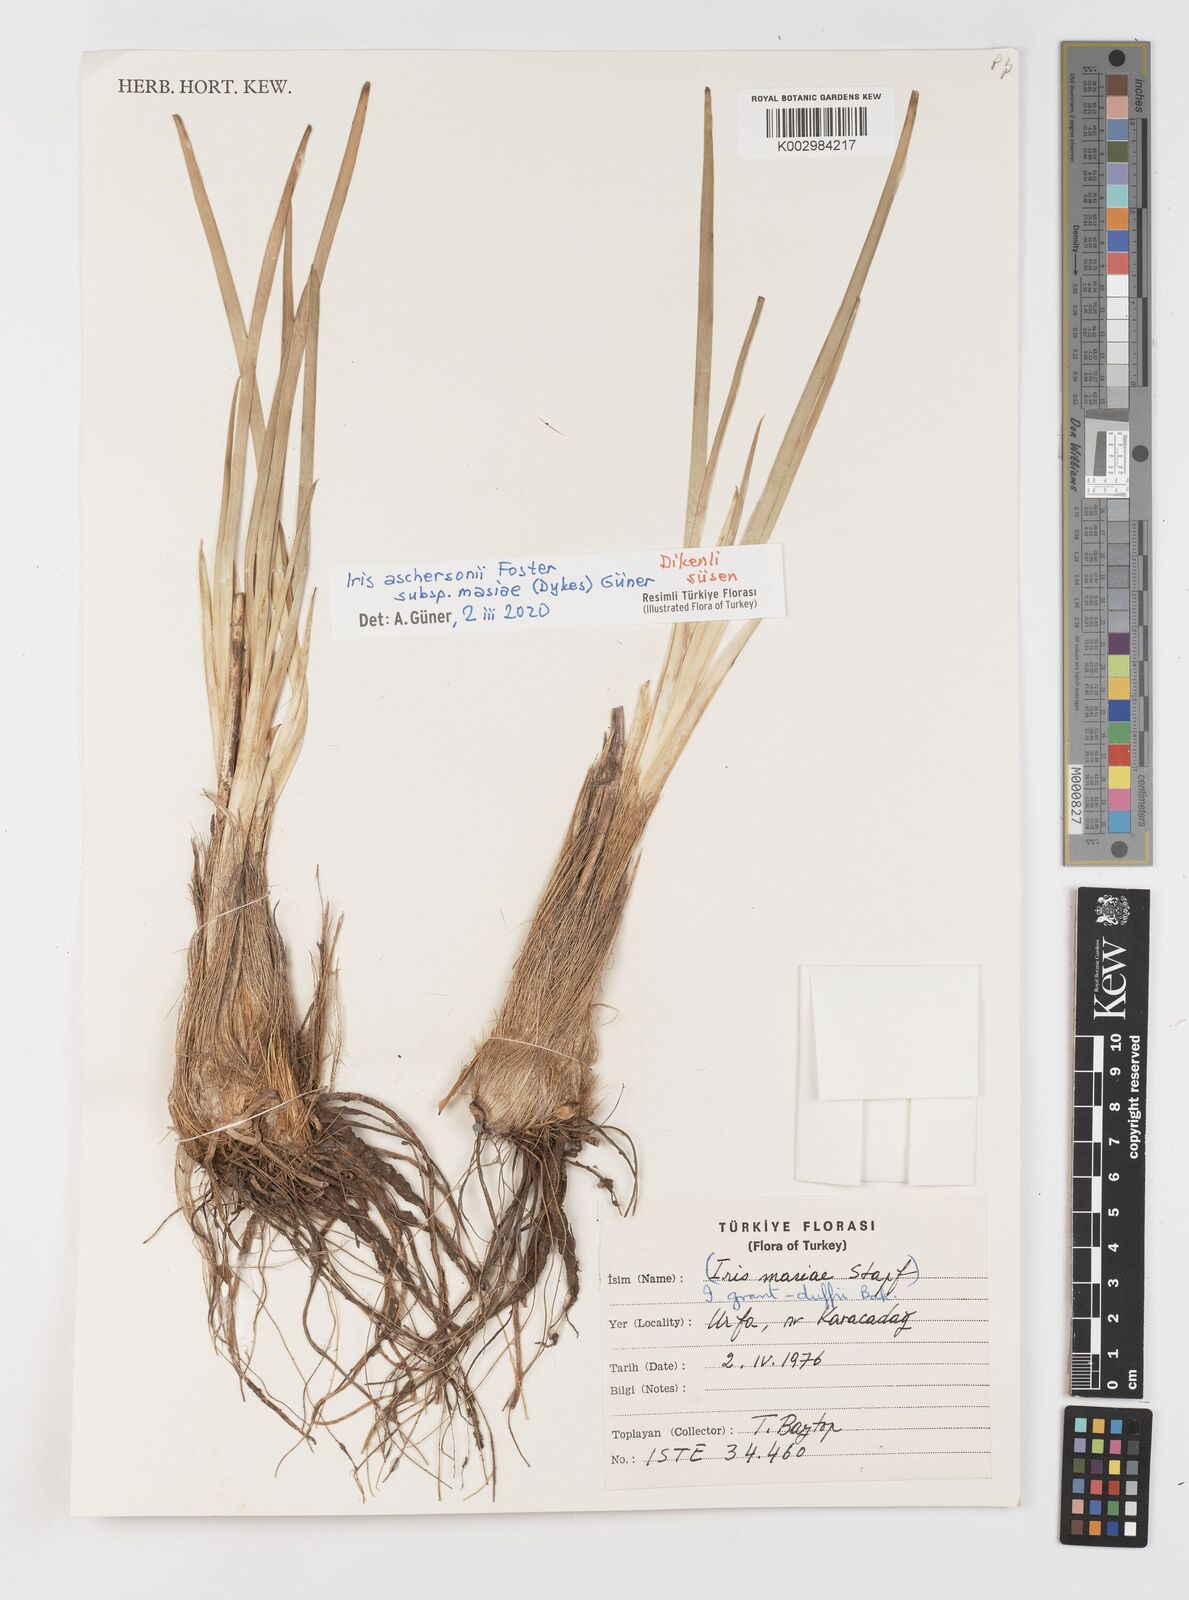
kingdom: Plantae
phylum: Tracheophyta
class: Liliopsida
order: Asparagales
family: Iridaceae
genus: Iris
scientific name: Iris grant-duffii
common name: Grant duff's iris
